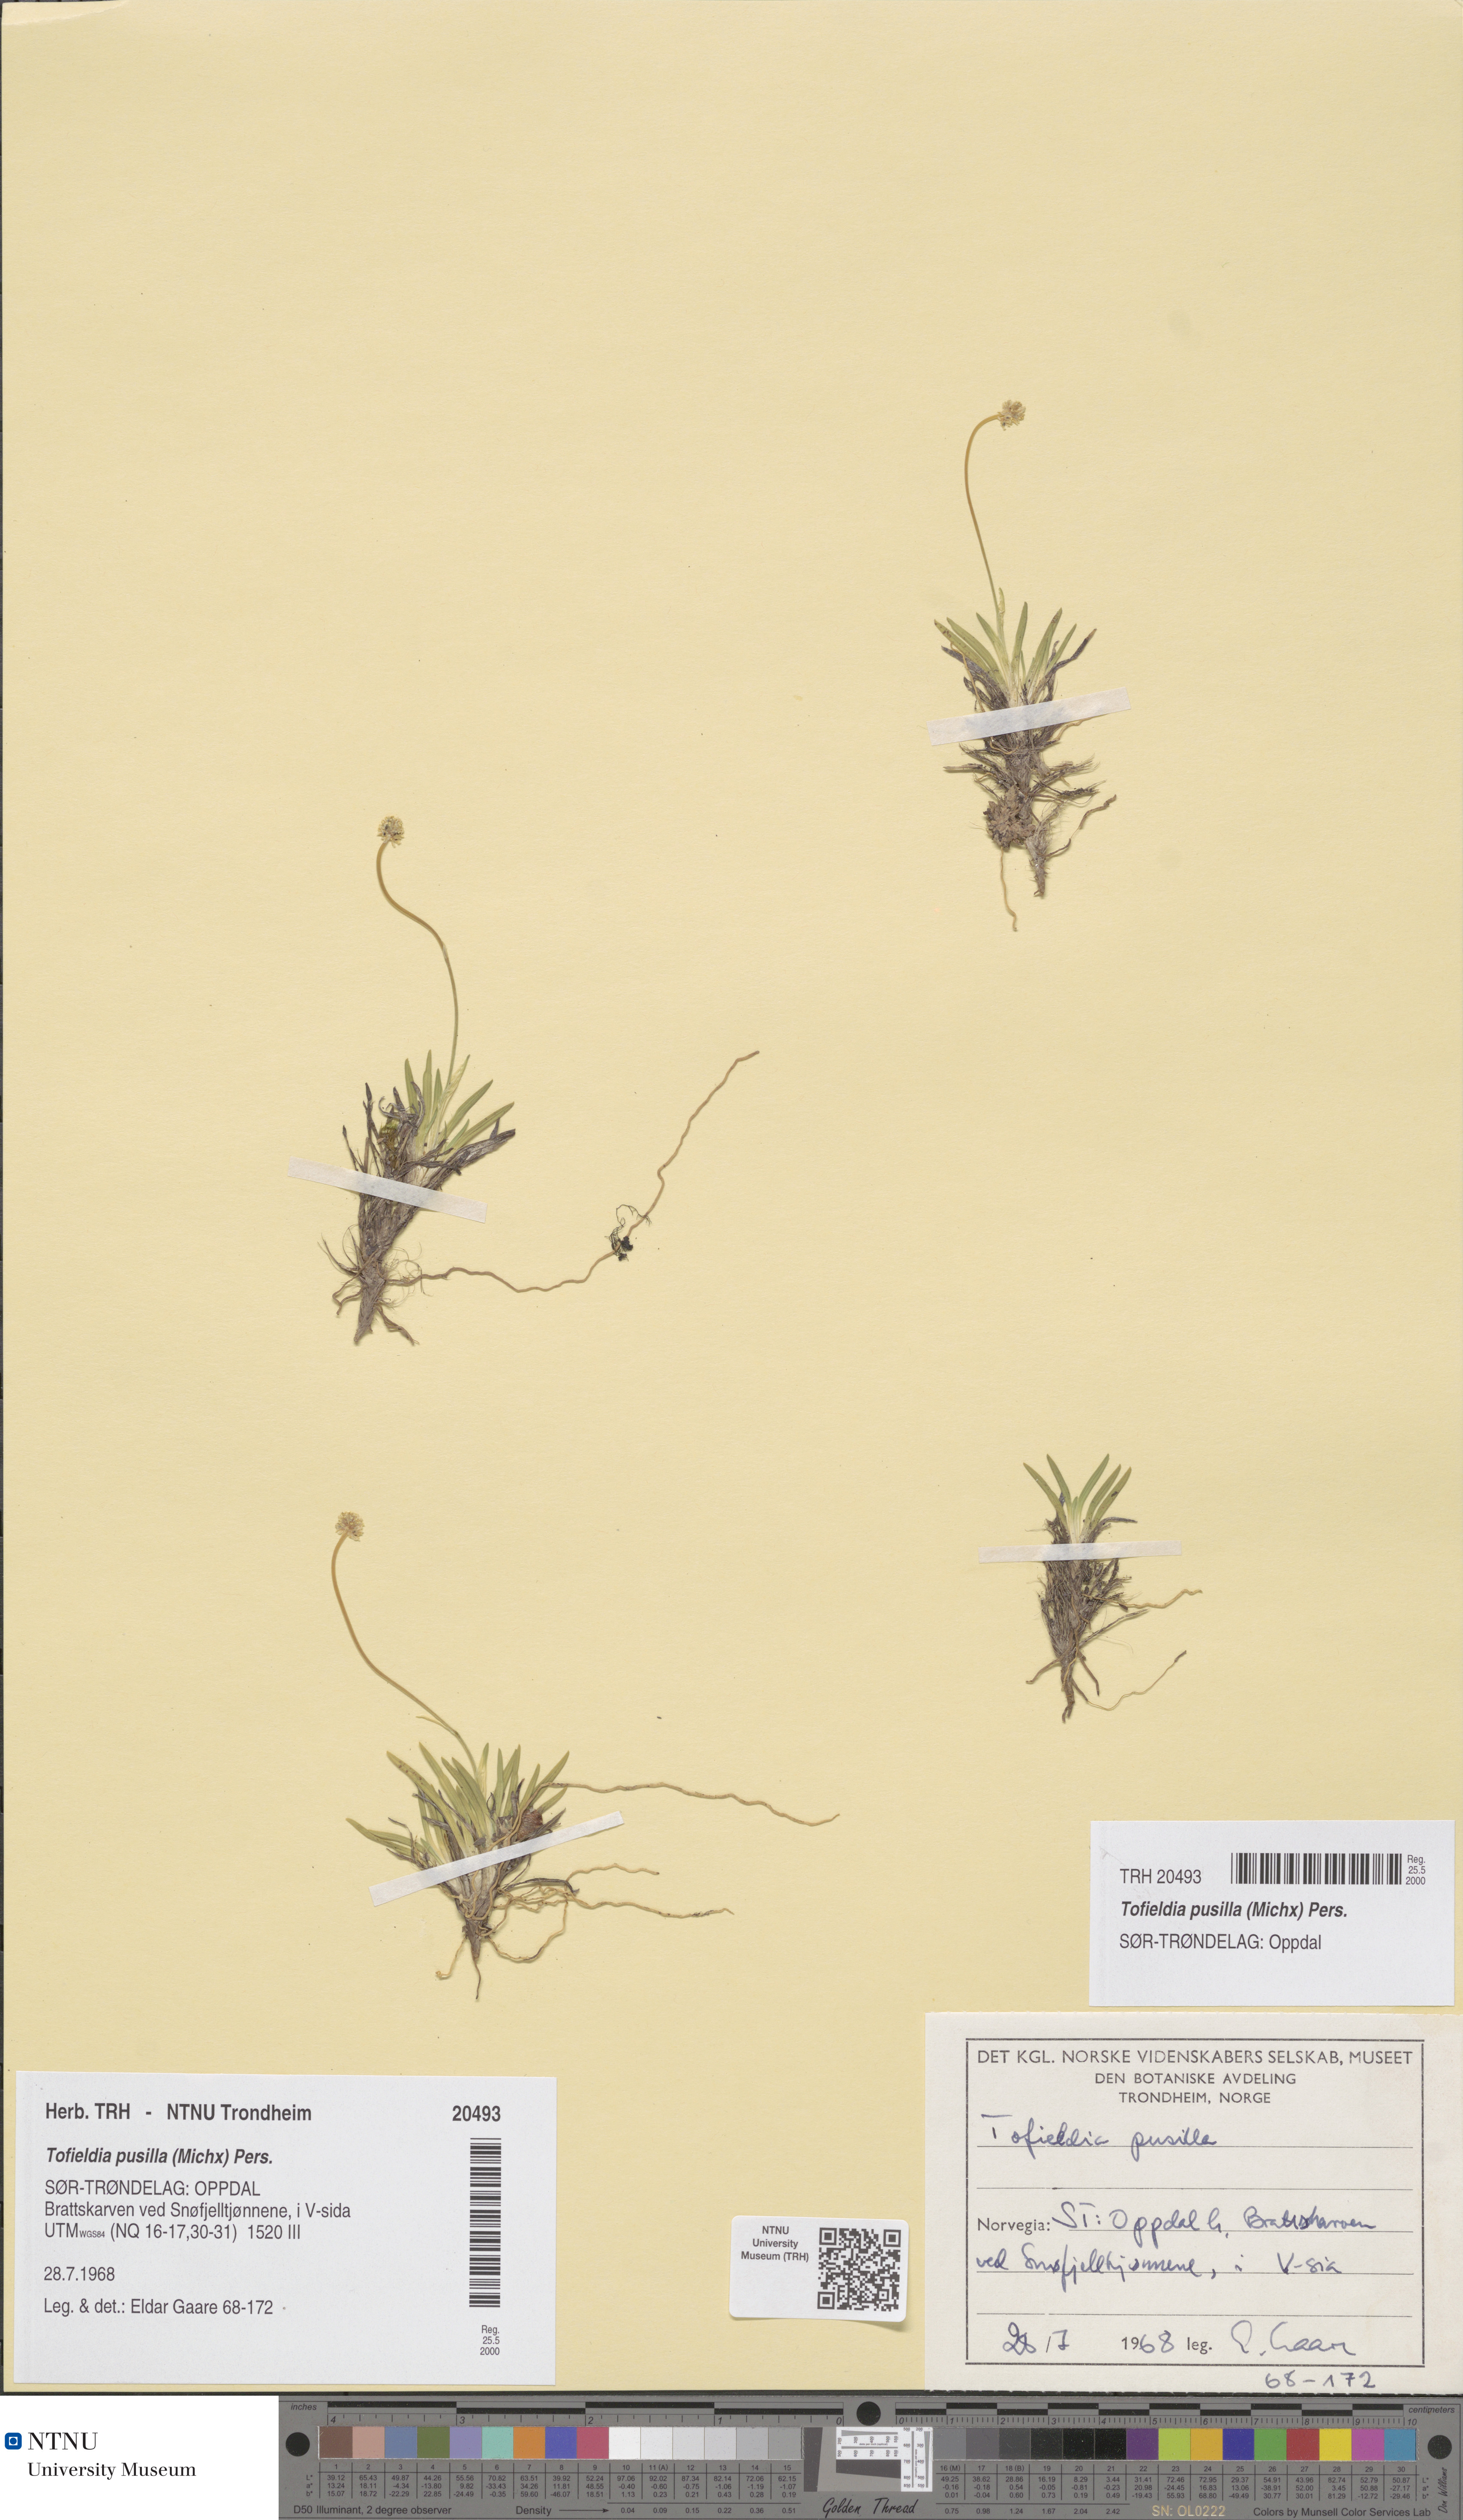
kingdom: Plantae
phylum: Tracheophyta
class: Liliopsida
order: Alismatales
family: Tofieldiaceae
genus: Tofieldia
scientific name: Tofieldia pusilla
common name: Scottish false asphodel
